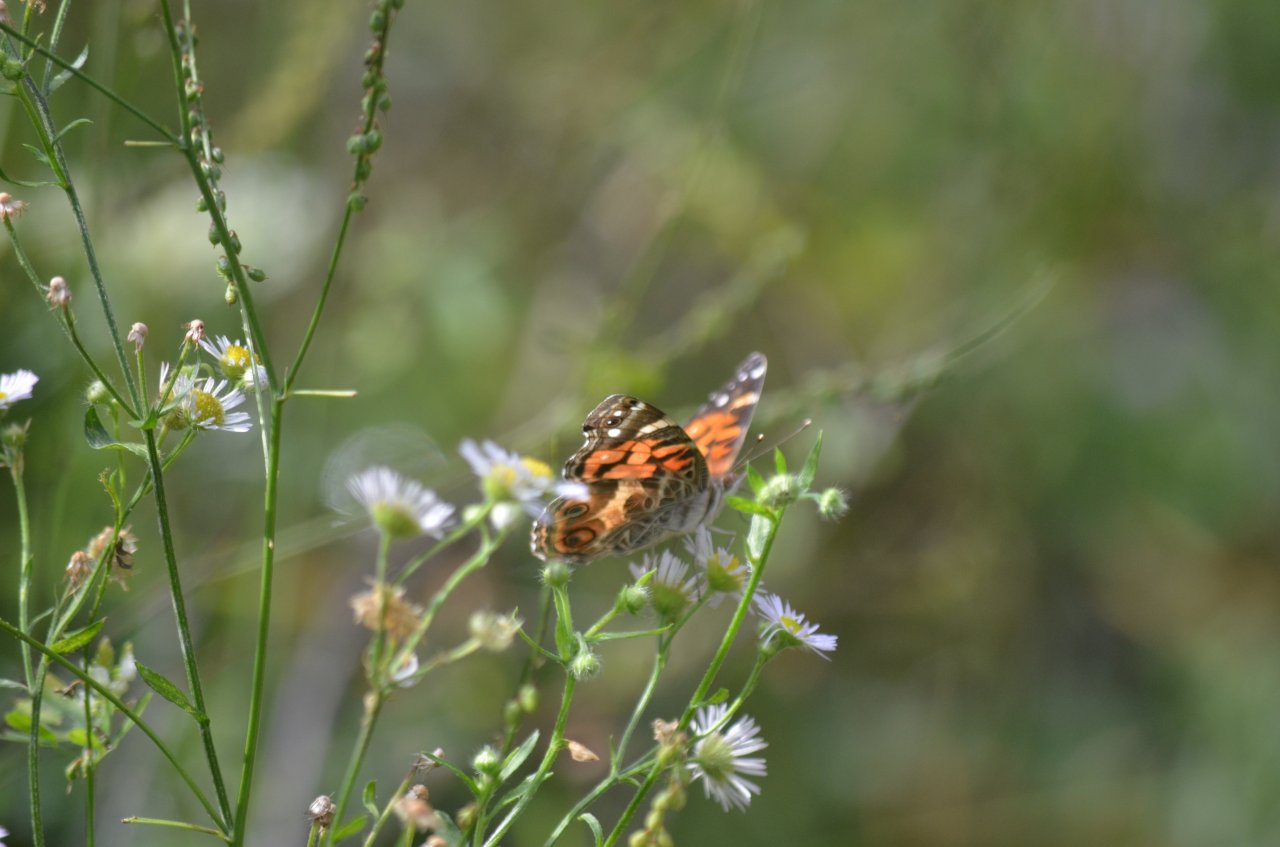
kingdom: Animalia
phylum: Arthropoda
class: Insecta
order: Lepidoptera
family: Nymphalidae
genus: Vanessa
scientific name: Vanessa virginiensis
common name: American Lady
